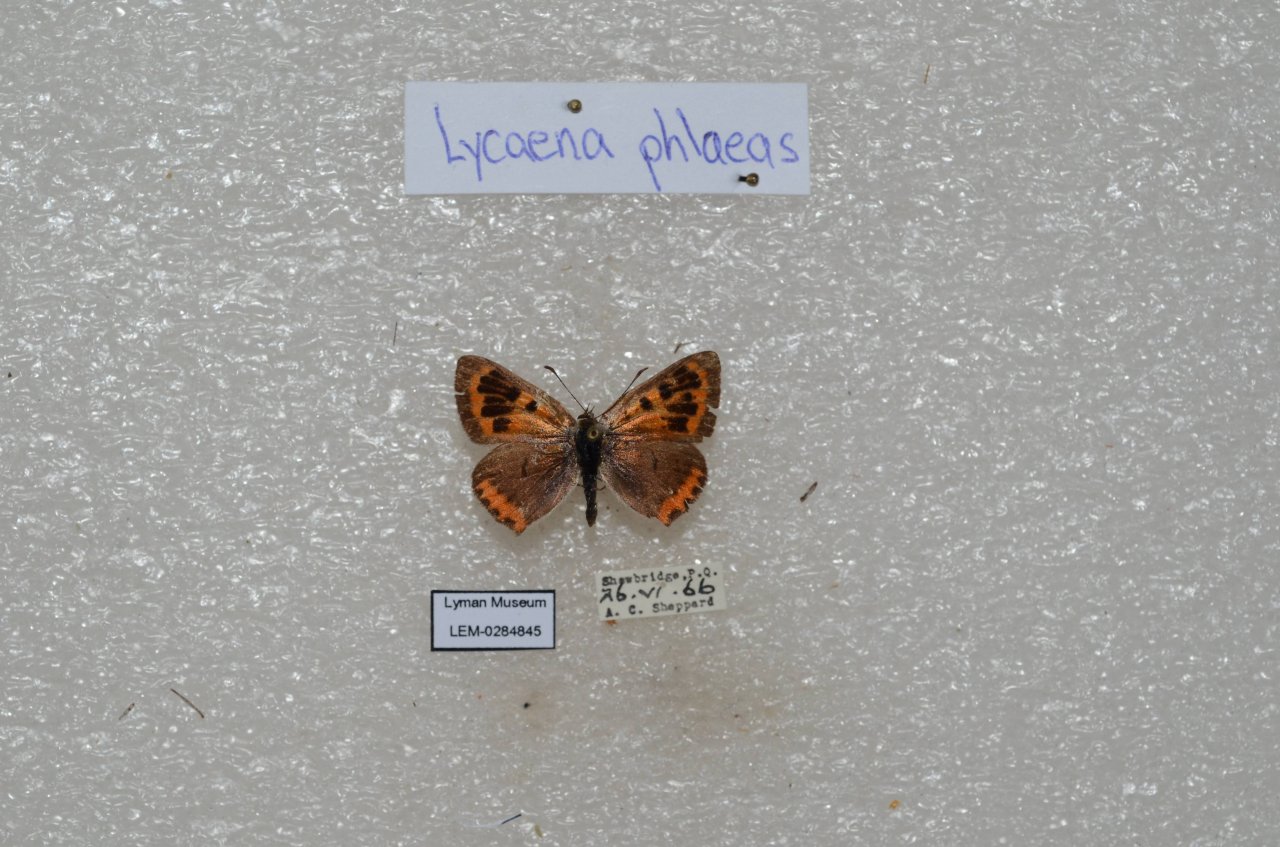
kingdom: Animalia
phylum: Arthropoda
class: Insecta
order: Lepidoptera
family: Lycaenidae
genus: Lycaena
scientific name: Lycaena phlaeas
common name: American Copper
